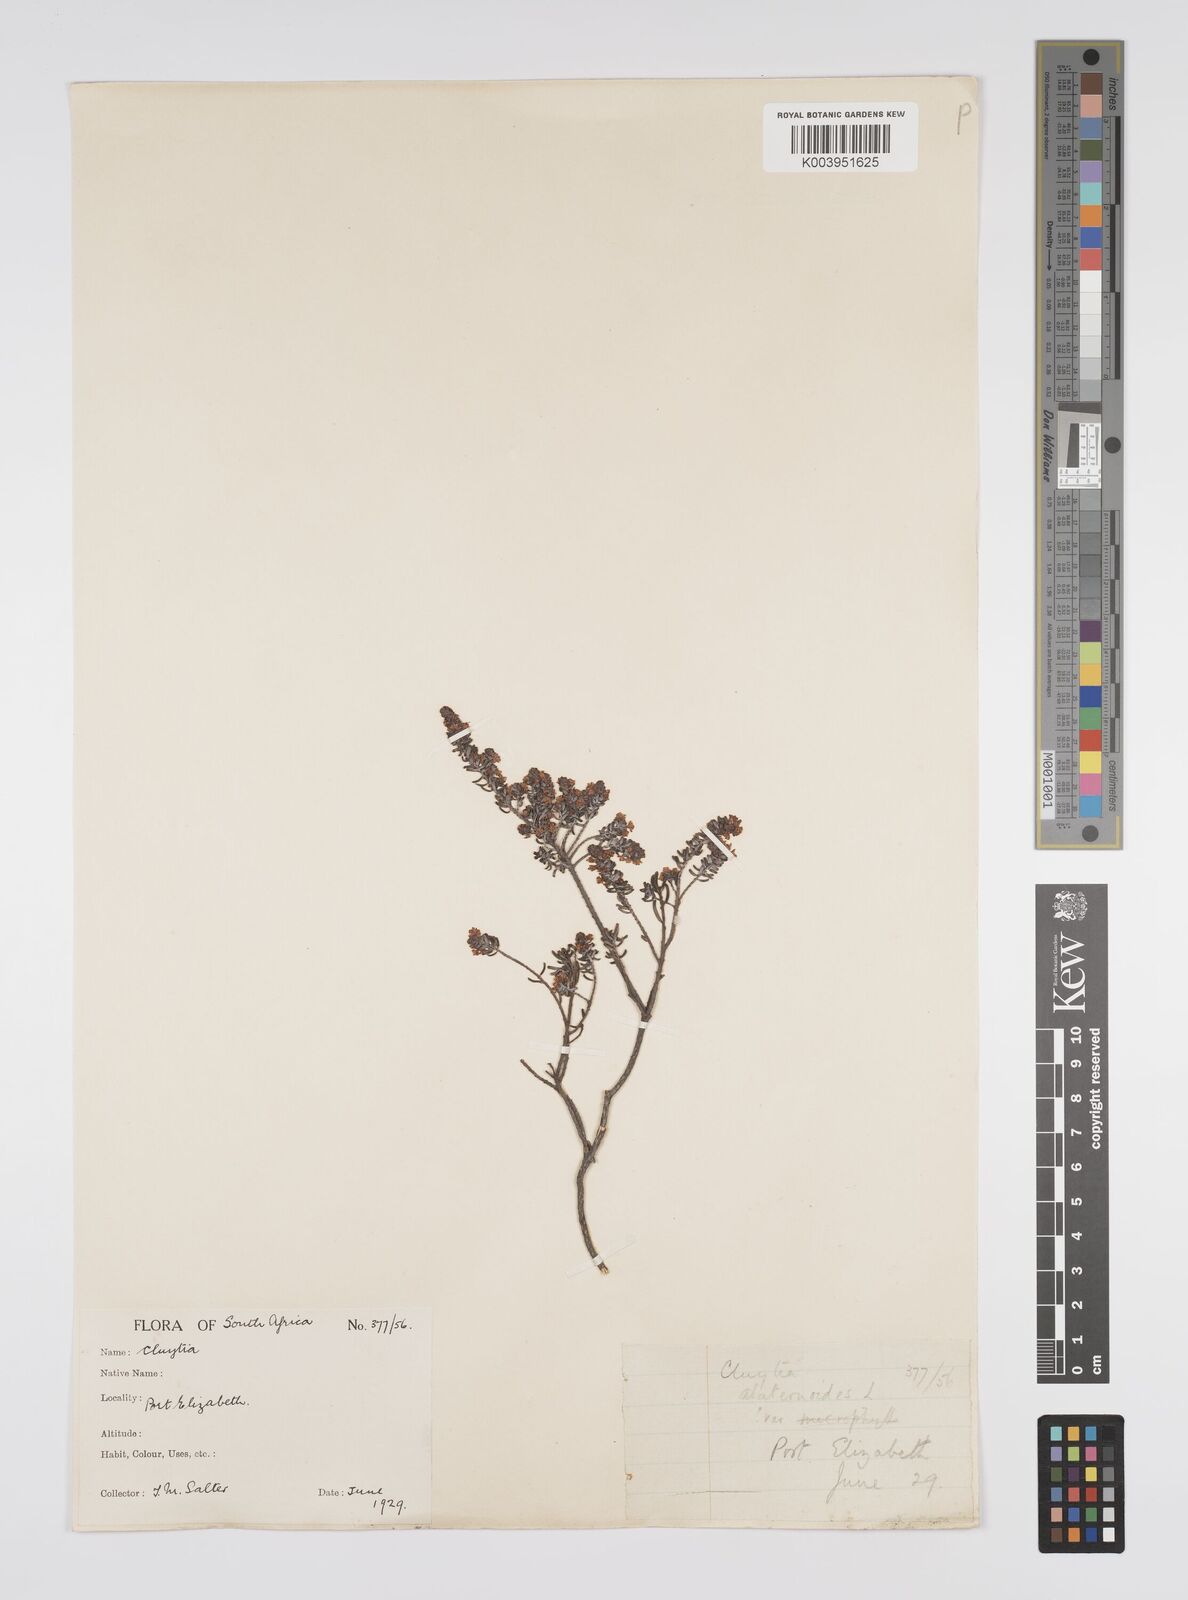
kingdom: Plantae
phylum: Tracheophyta
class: Magnoliopsida
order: Malpighiales
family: Peraceae
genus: Clutia
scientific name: Clutia laxa
